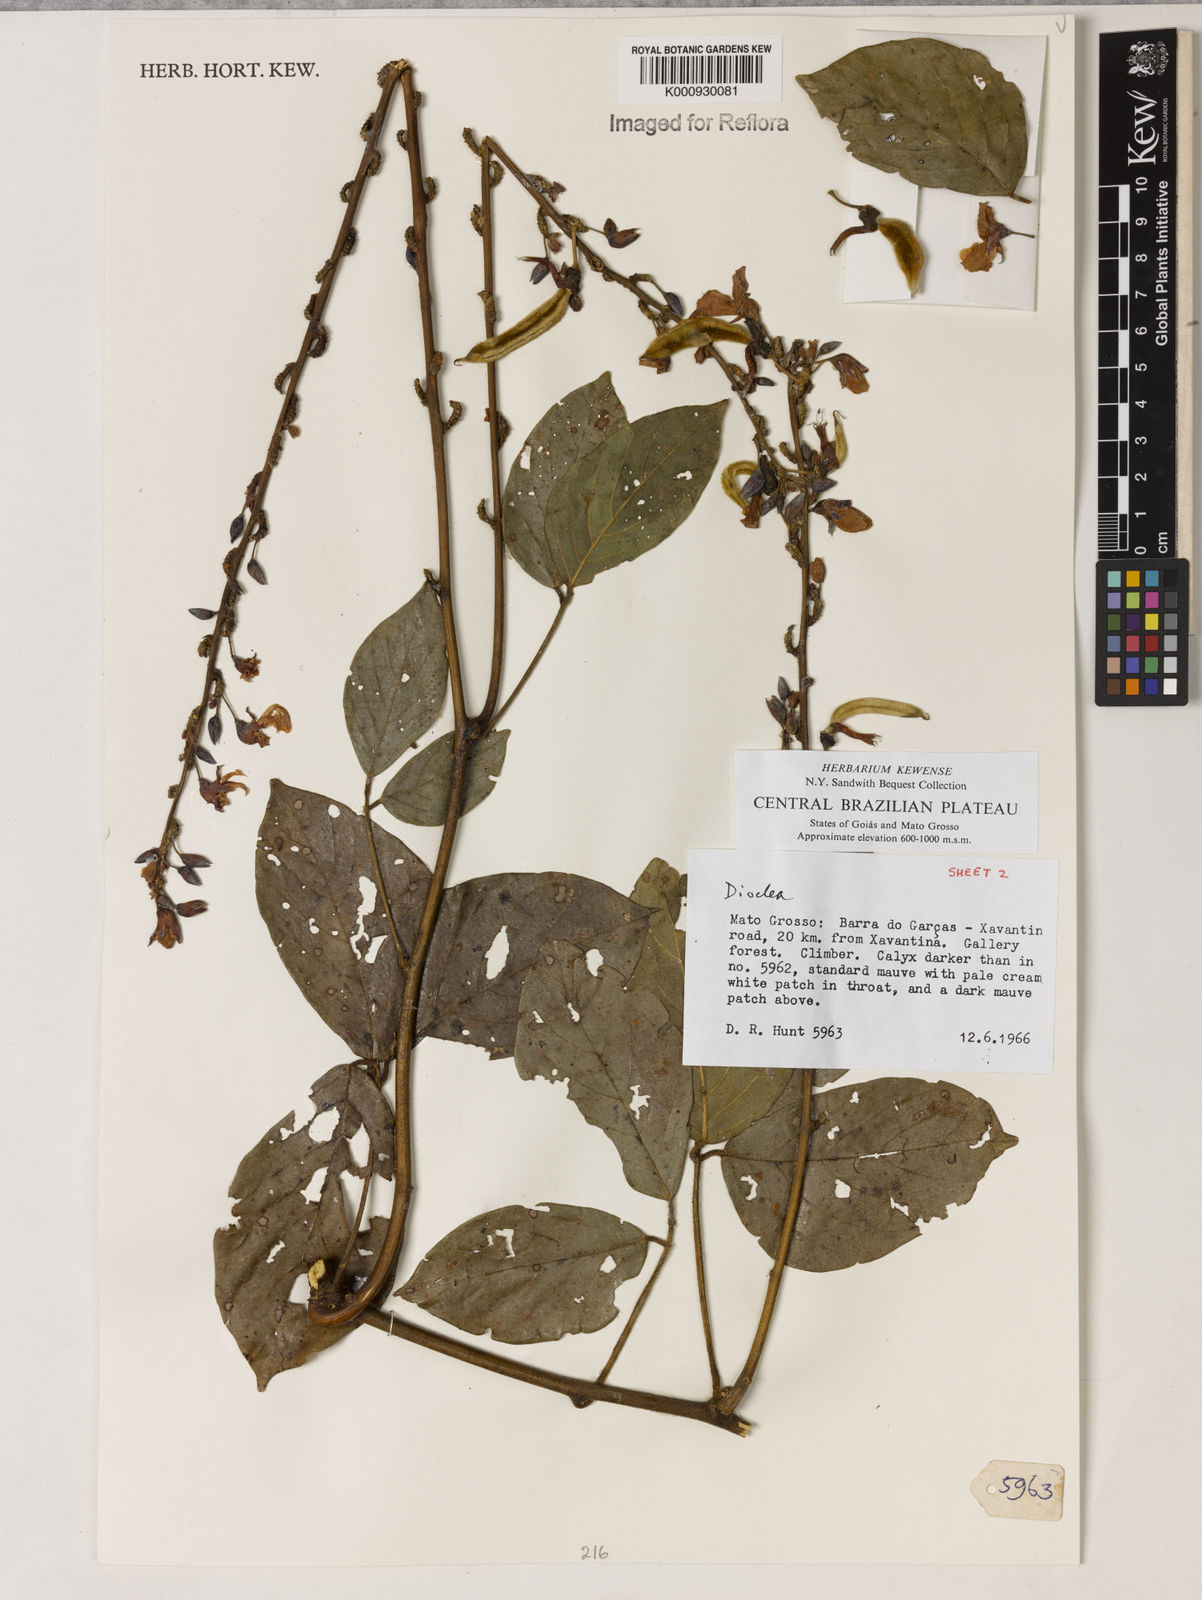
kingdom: Plantae
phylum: Tracheophyta
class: Magnoliopsida
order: Fabales
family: Fabaceae
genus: Dioclea
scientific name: Dioclea
